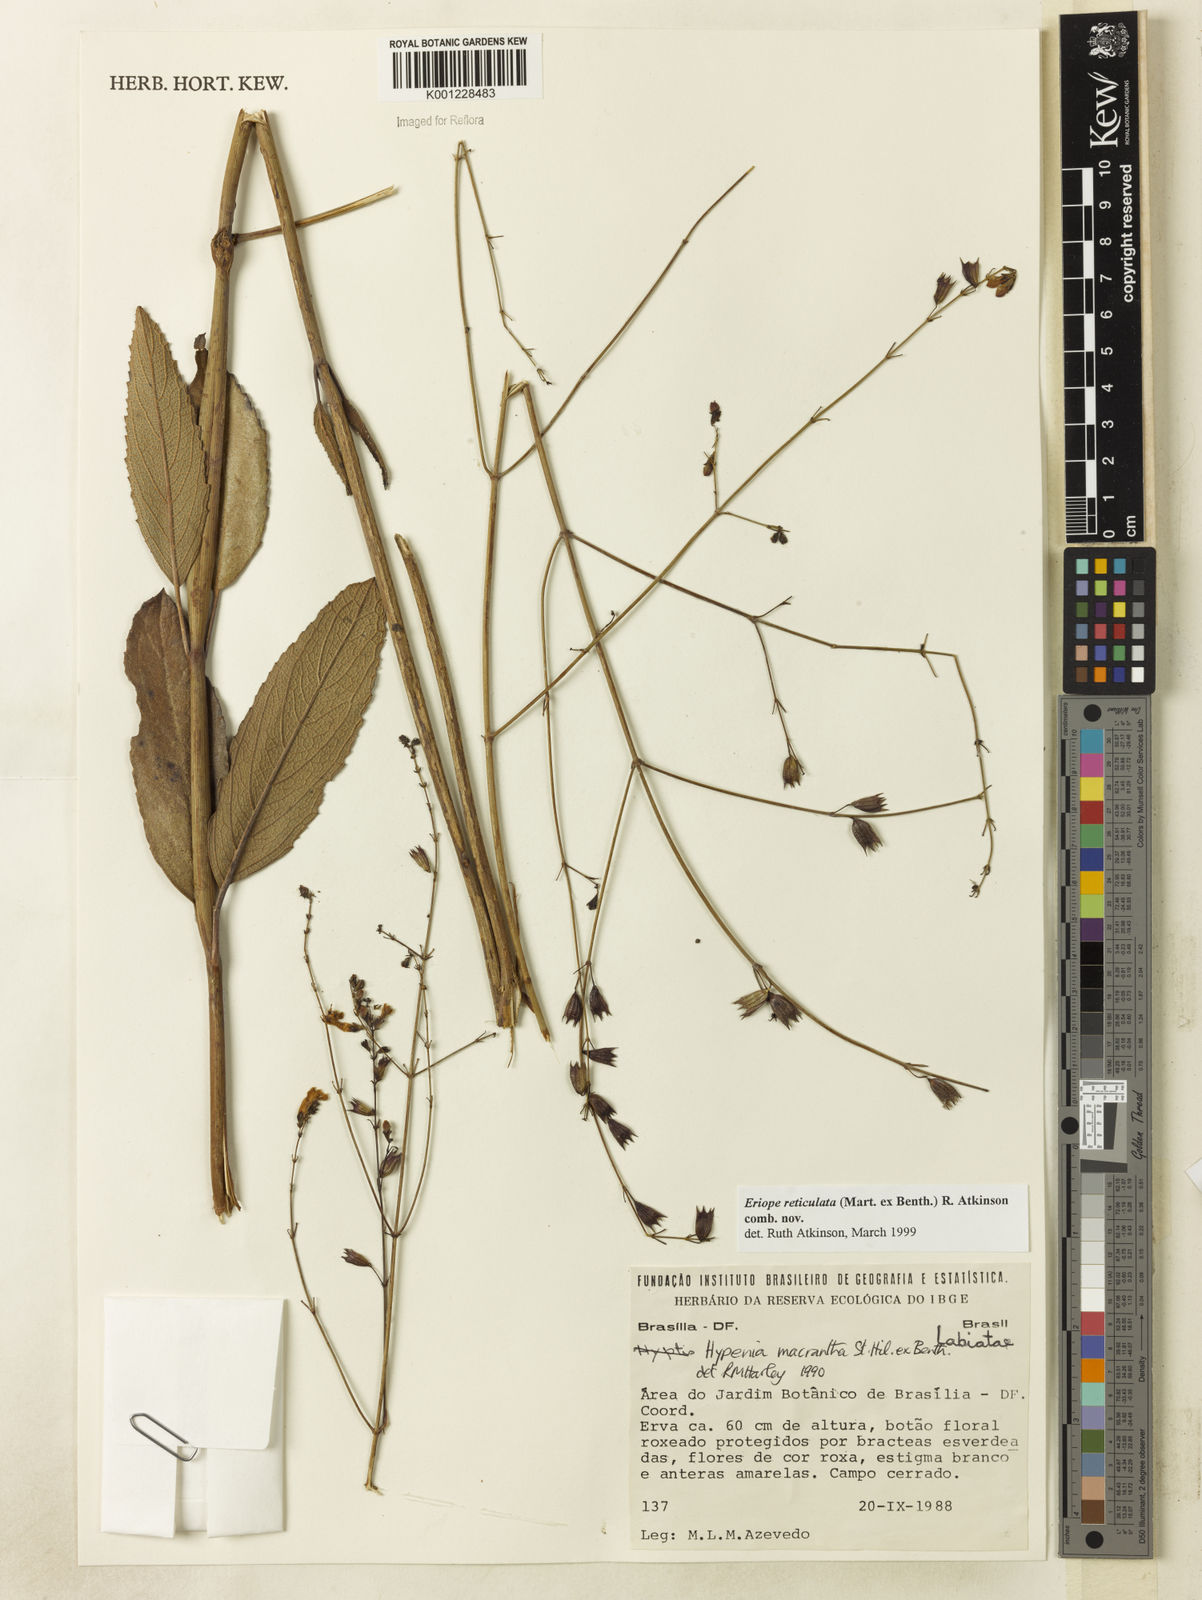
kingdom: Plantae
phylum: Tracheophyta
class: Magnoliopsida
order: Lamiales
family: Lamiaceae
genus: Hypenia
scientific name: Hypenia reticulata
